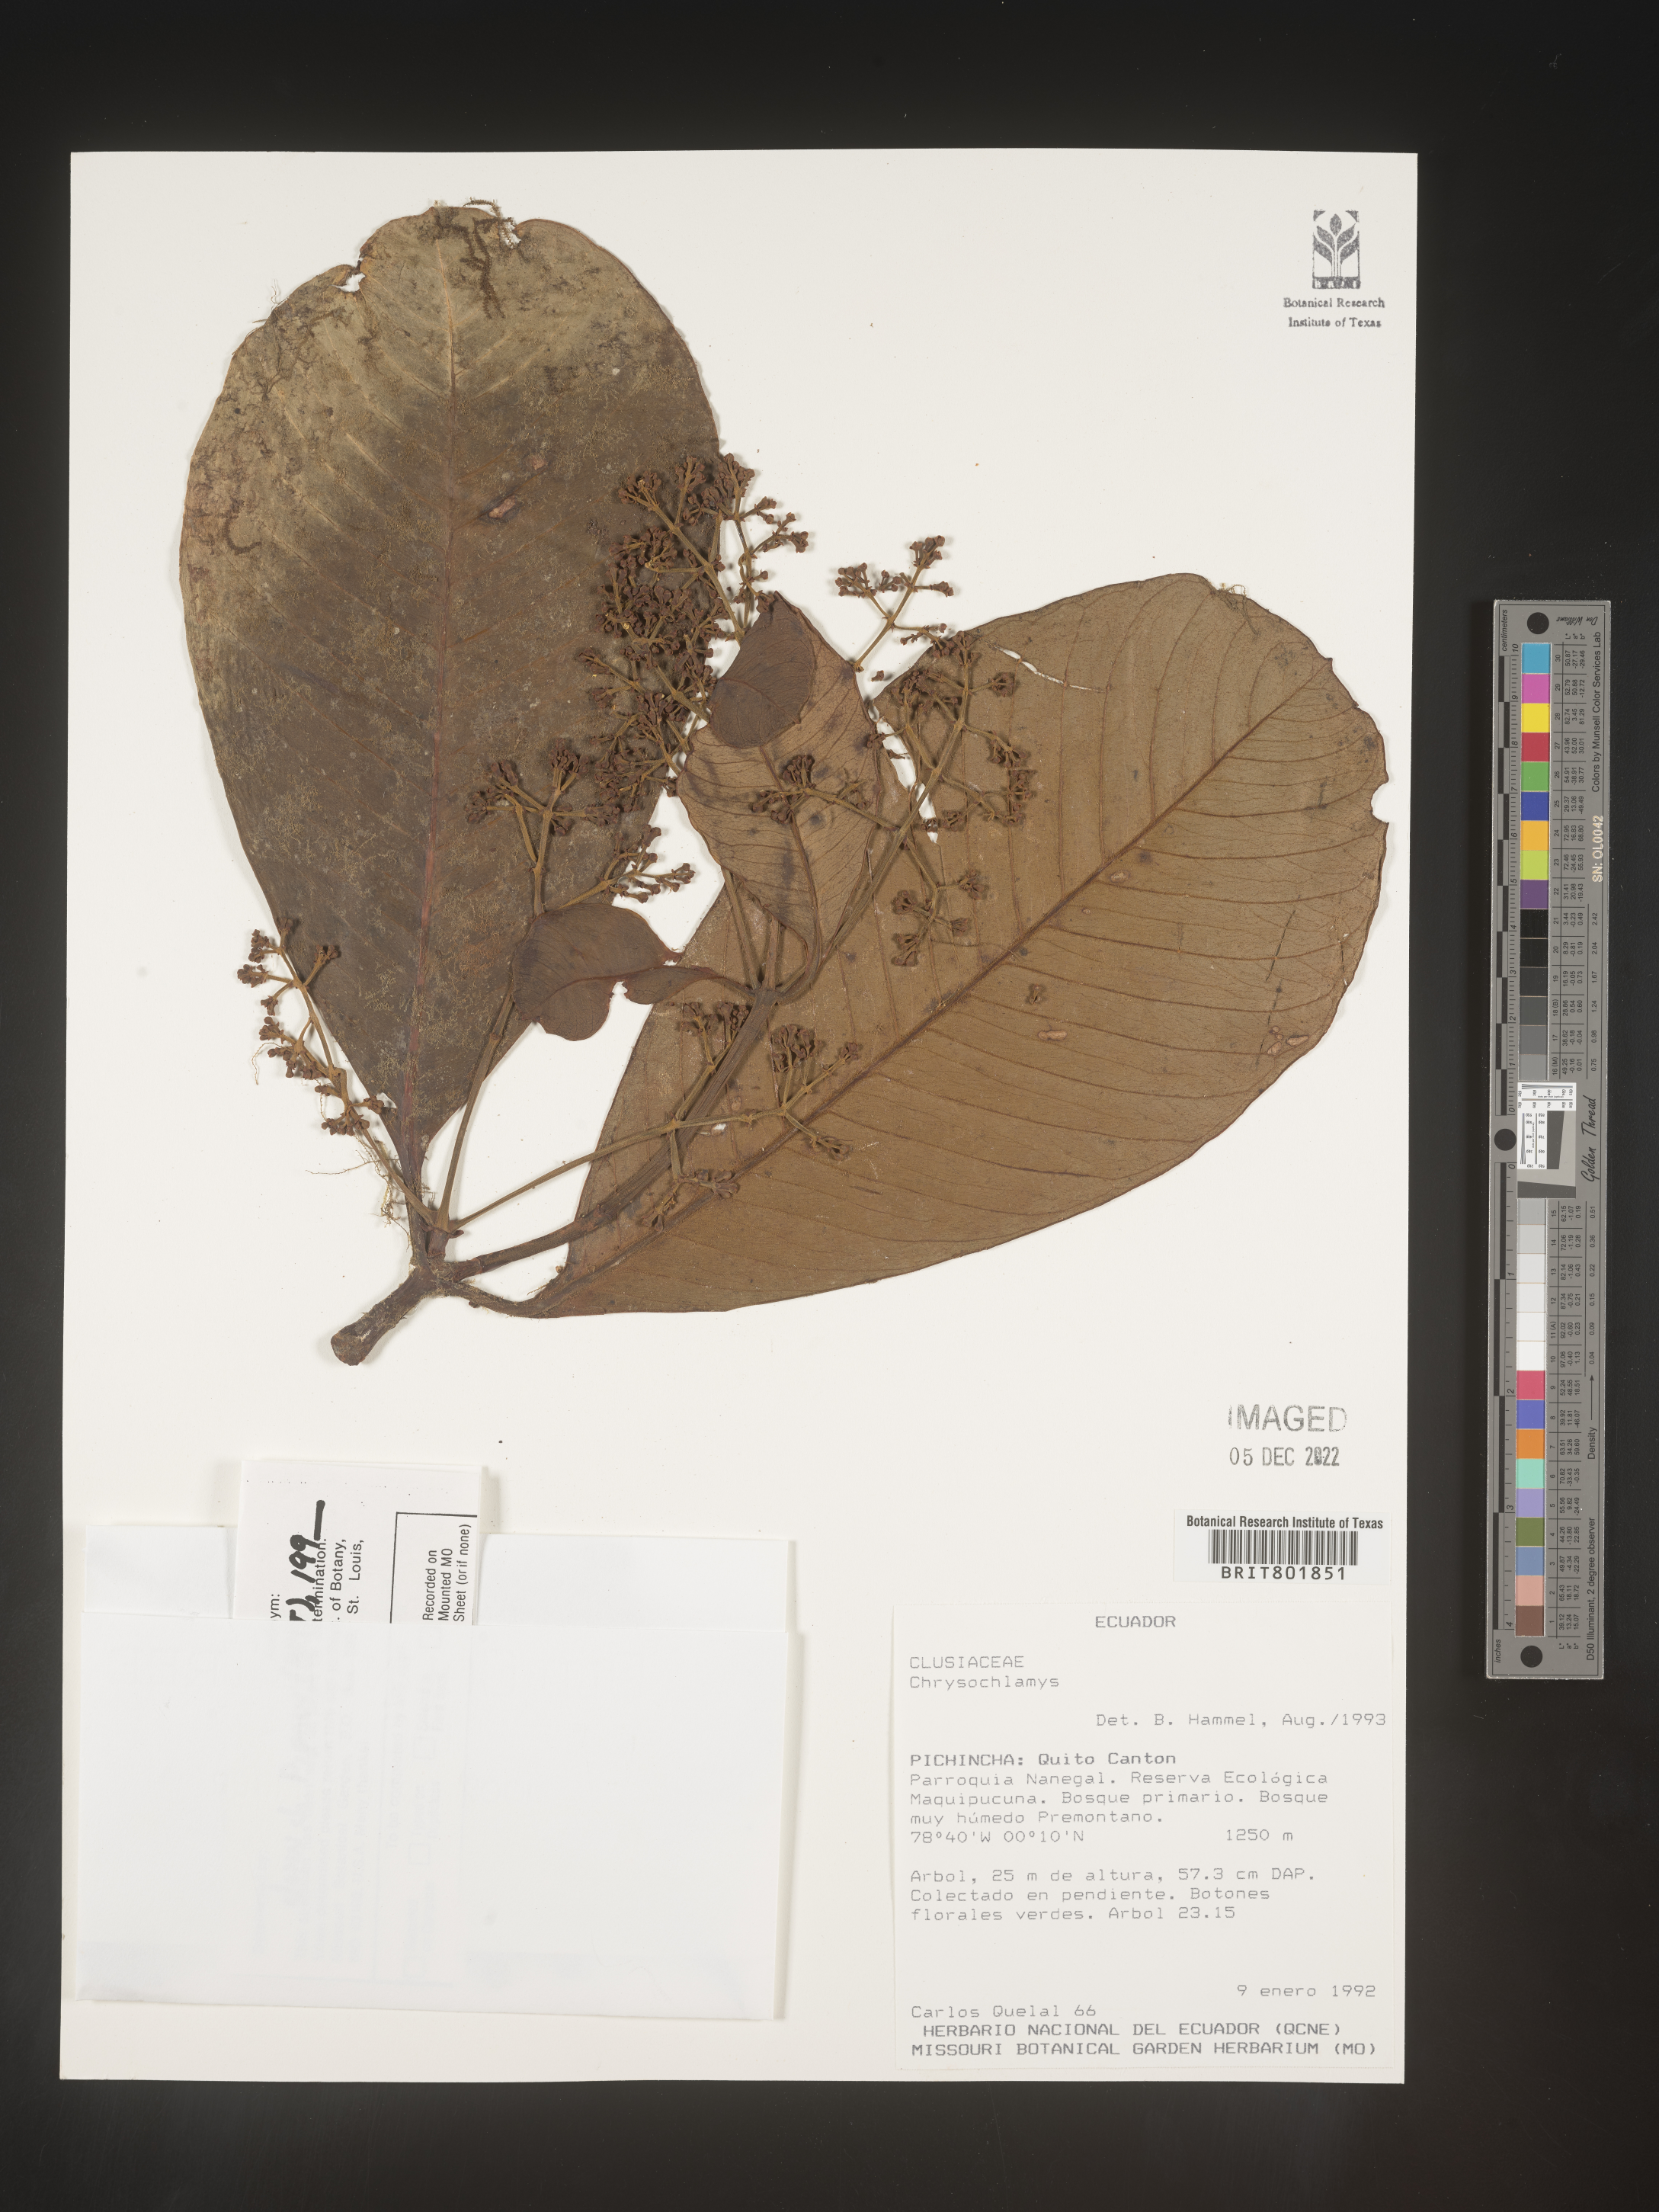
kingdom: Plantae
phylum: Tracheophyta
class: Magnoliopsida
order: Malpighiales
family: Clusiaceae
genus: Chrysochlamys
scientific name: Chrysochlamys
